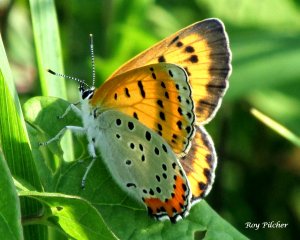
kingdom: Animalia
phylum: Arthropoda
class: Insecta
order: Lepidoptera
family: Sesiidae
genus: Sesia
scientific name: Sesia Lycaena hyllus
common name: Bronze Copper
